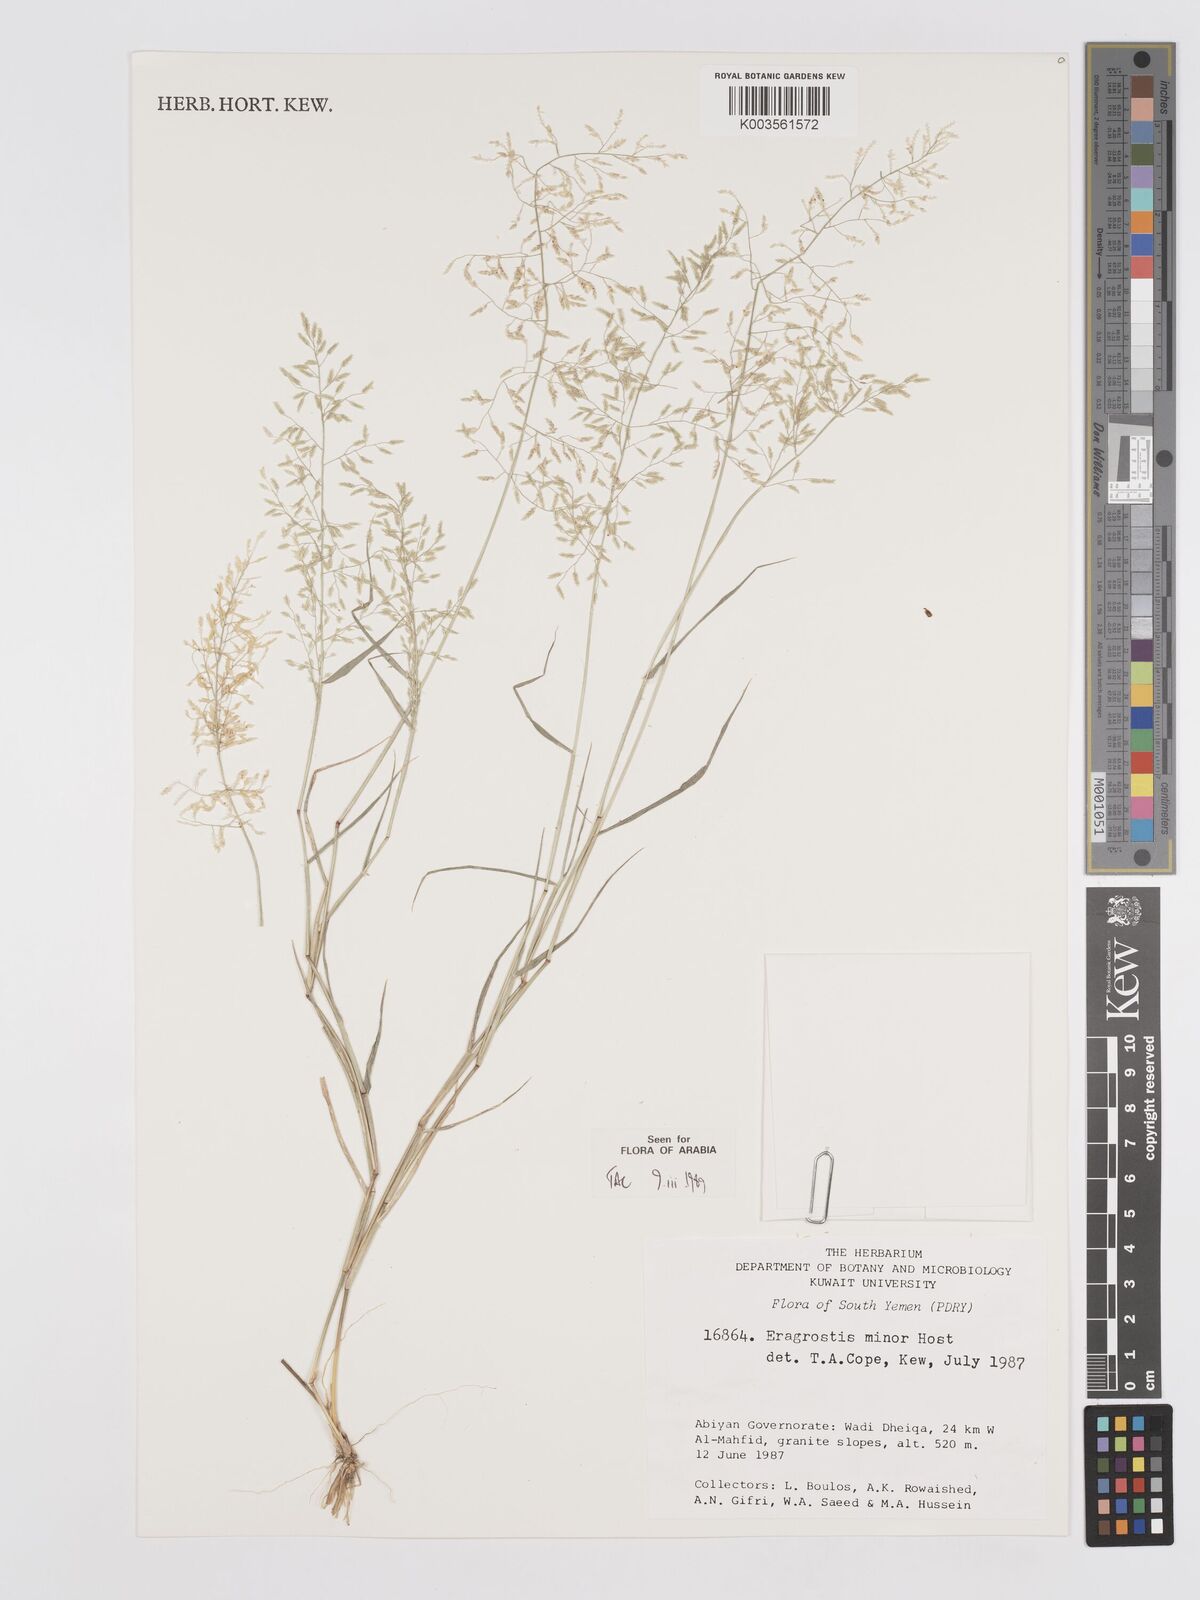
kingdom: Plantae
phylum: Tracheophyta
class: Liliopsida
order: Poales
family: Poaceae
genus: Eragrostis
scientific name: Eragrostis minor
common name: Small love-grass
